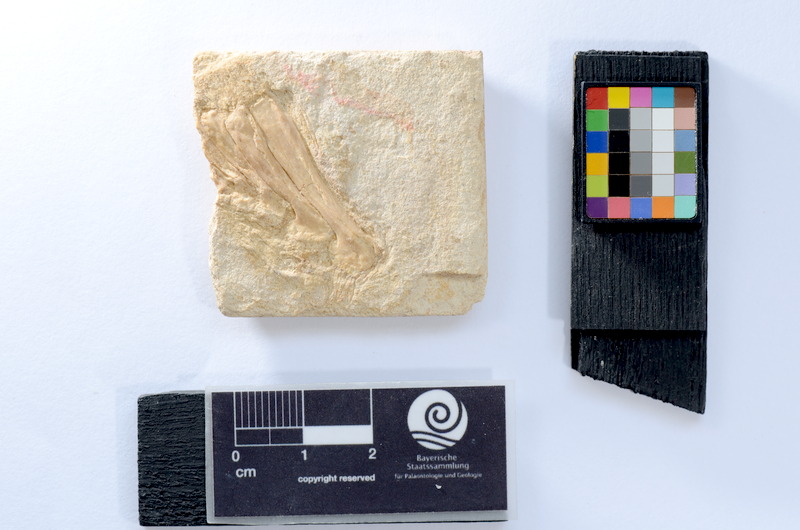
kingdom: Animalia
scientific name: Animalia
